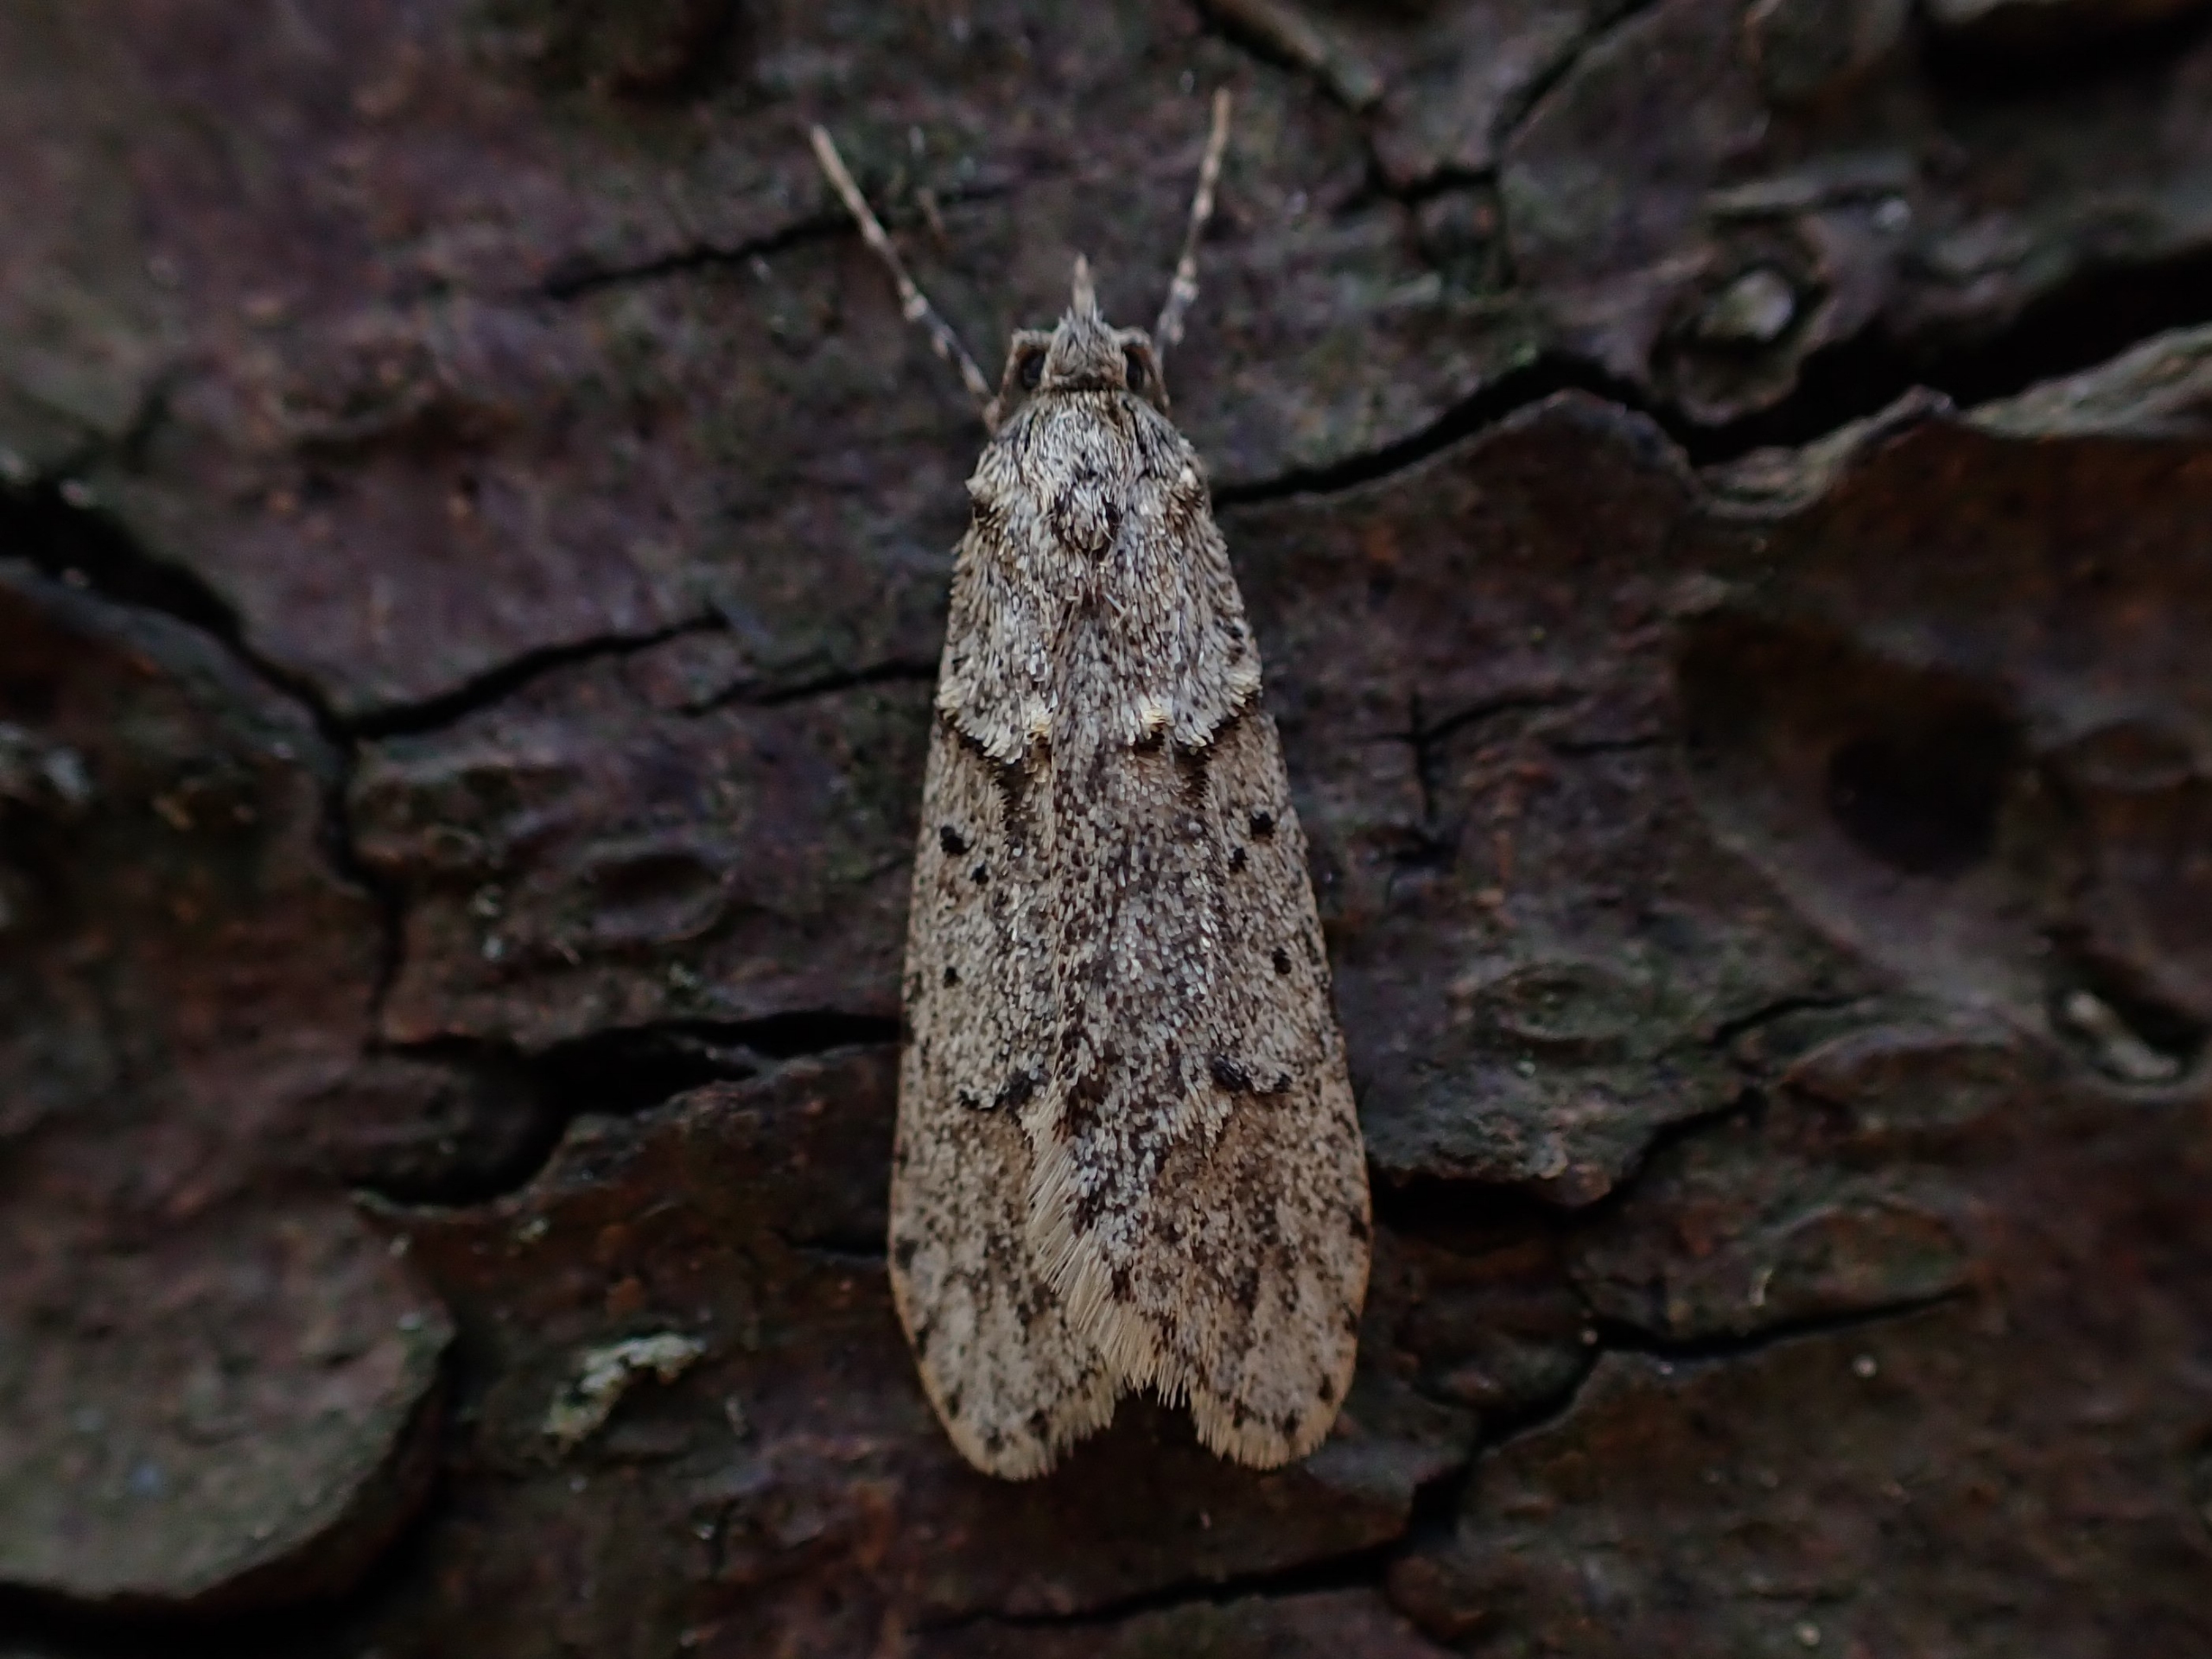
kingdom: Animalia
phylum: Arthropoda
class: Insecta
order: Lepidoptera
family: Lypusidae
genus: Diurnea
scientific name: Diurnea fagella
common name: Bøgeprydvinge
